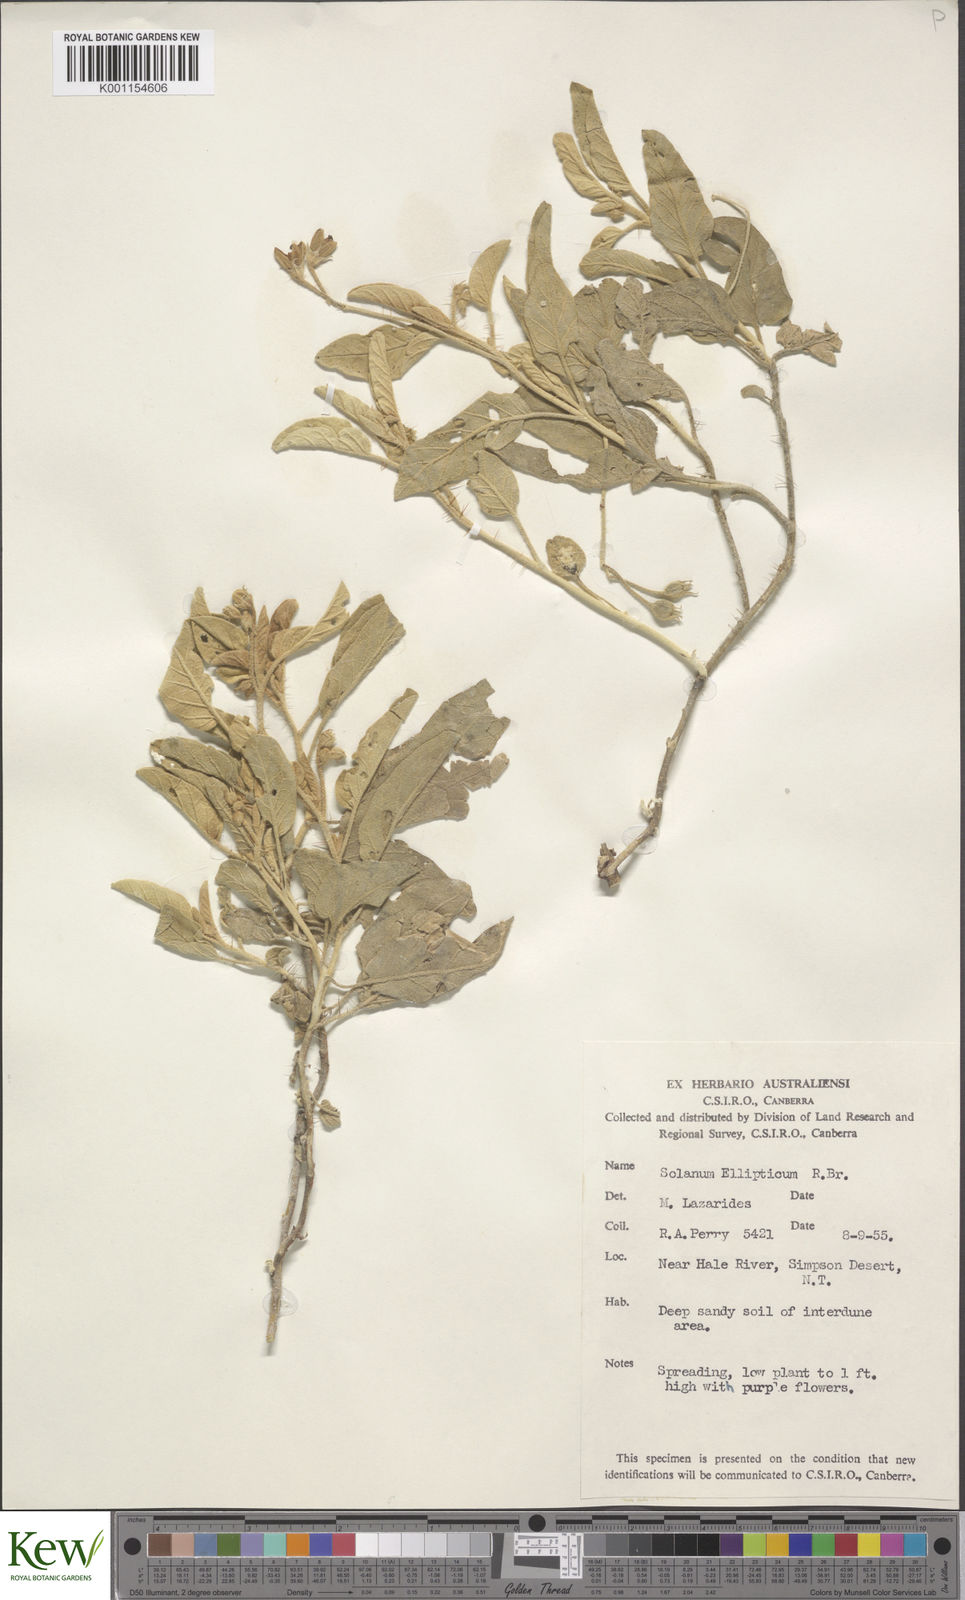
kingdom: Plantae
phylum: Tracheophyta
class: Magnoliopsida
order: Solanales
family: Solanaceae
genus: Solanum
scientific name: Solanum ellipticum
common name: Potato-bush
